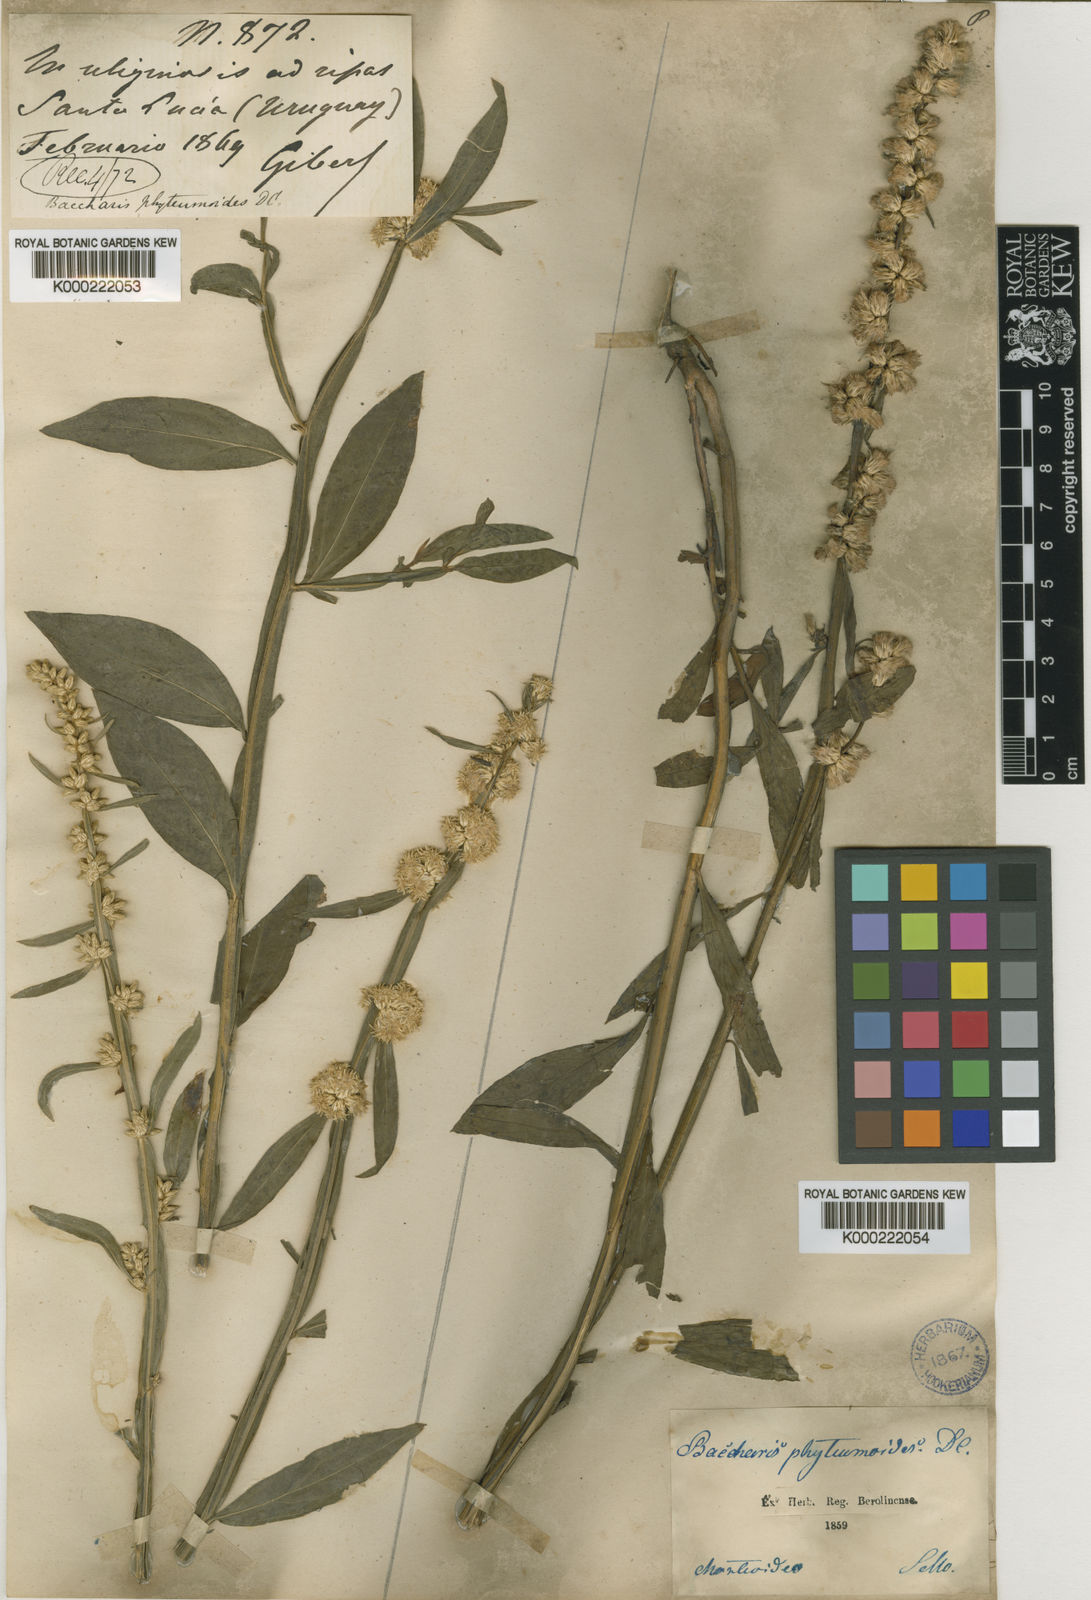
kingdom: Plantae
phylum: Tracheophyta
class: Magnoliopsida
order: Asterales
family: Asteraceae
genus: Baccharis
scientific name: Baccharis phyteumoides
